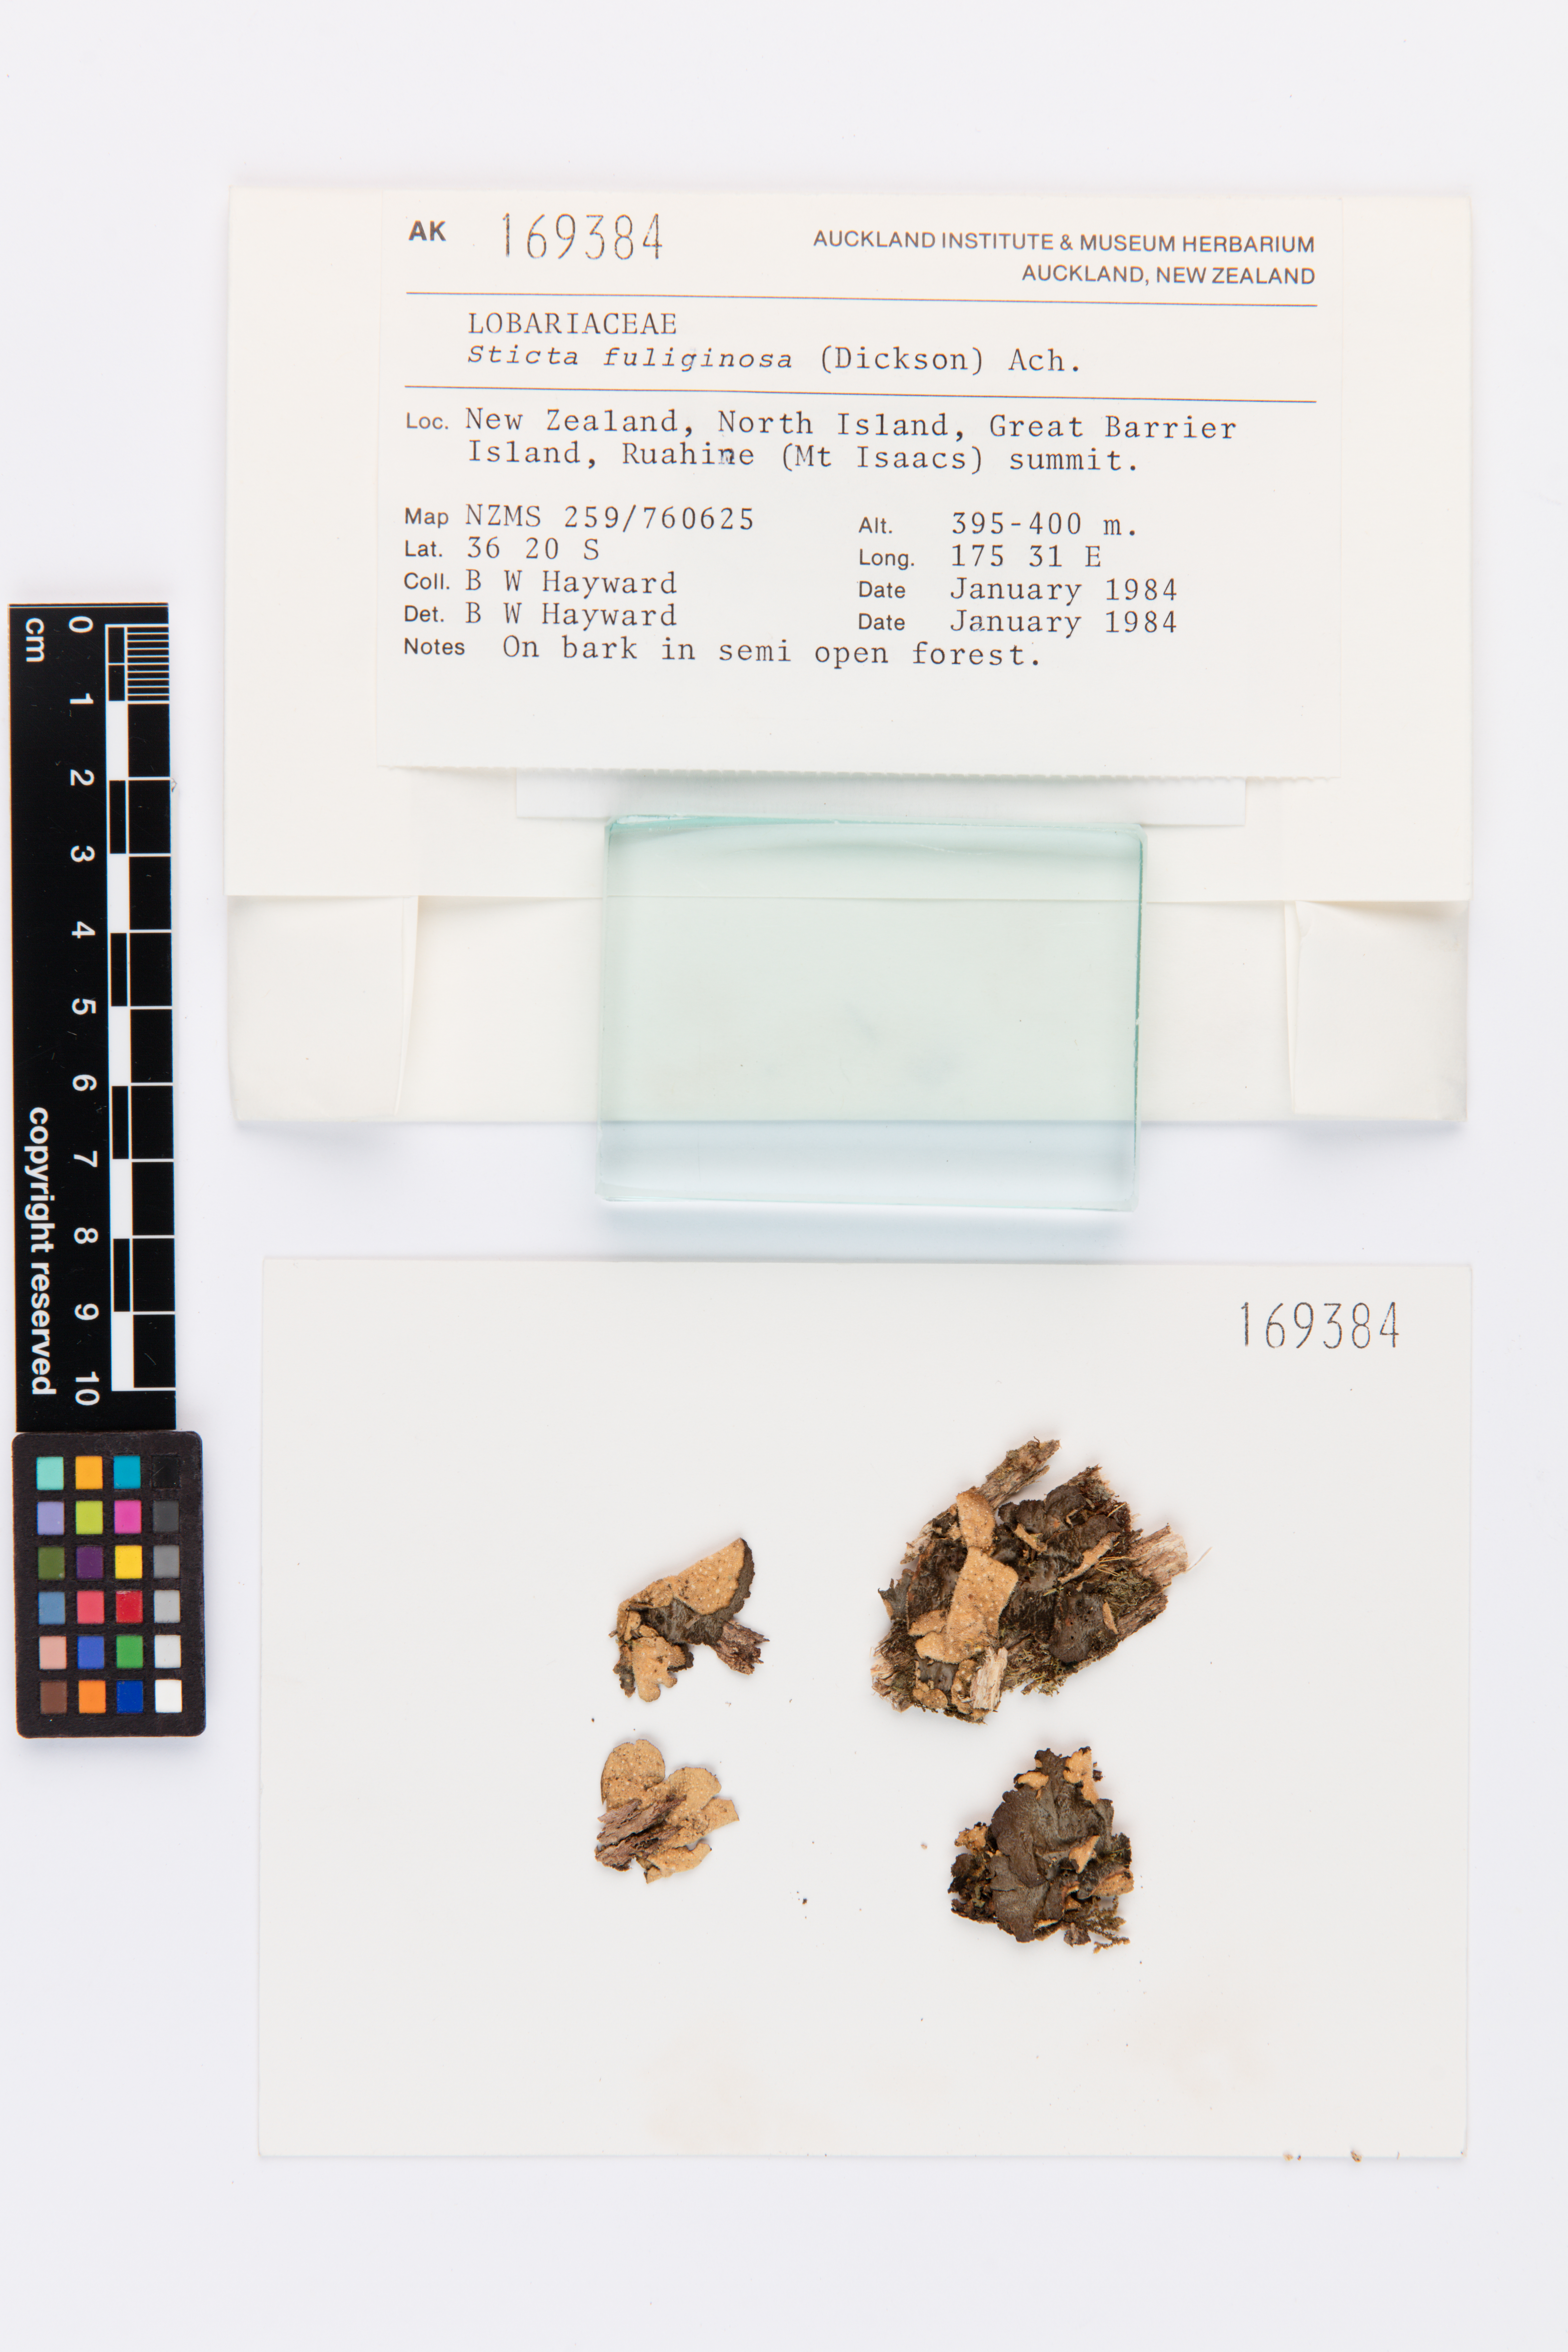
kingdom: Fungi
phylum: Ascomycota
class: Lecanoromycetes
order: Peltigerales
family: Lobariaceae
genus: Sticta
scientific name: Sticta fuliginosa
